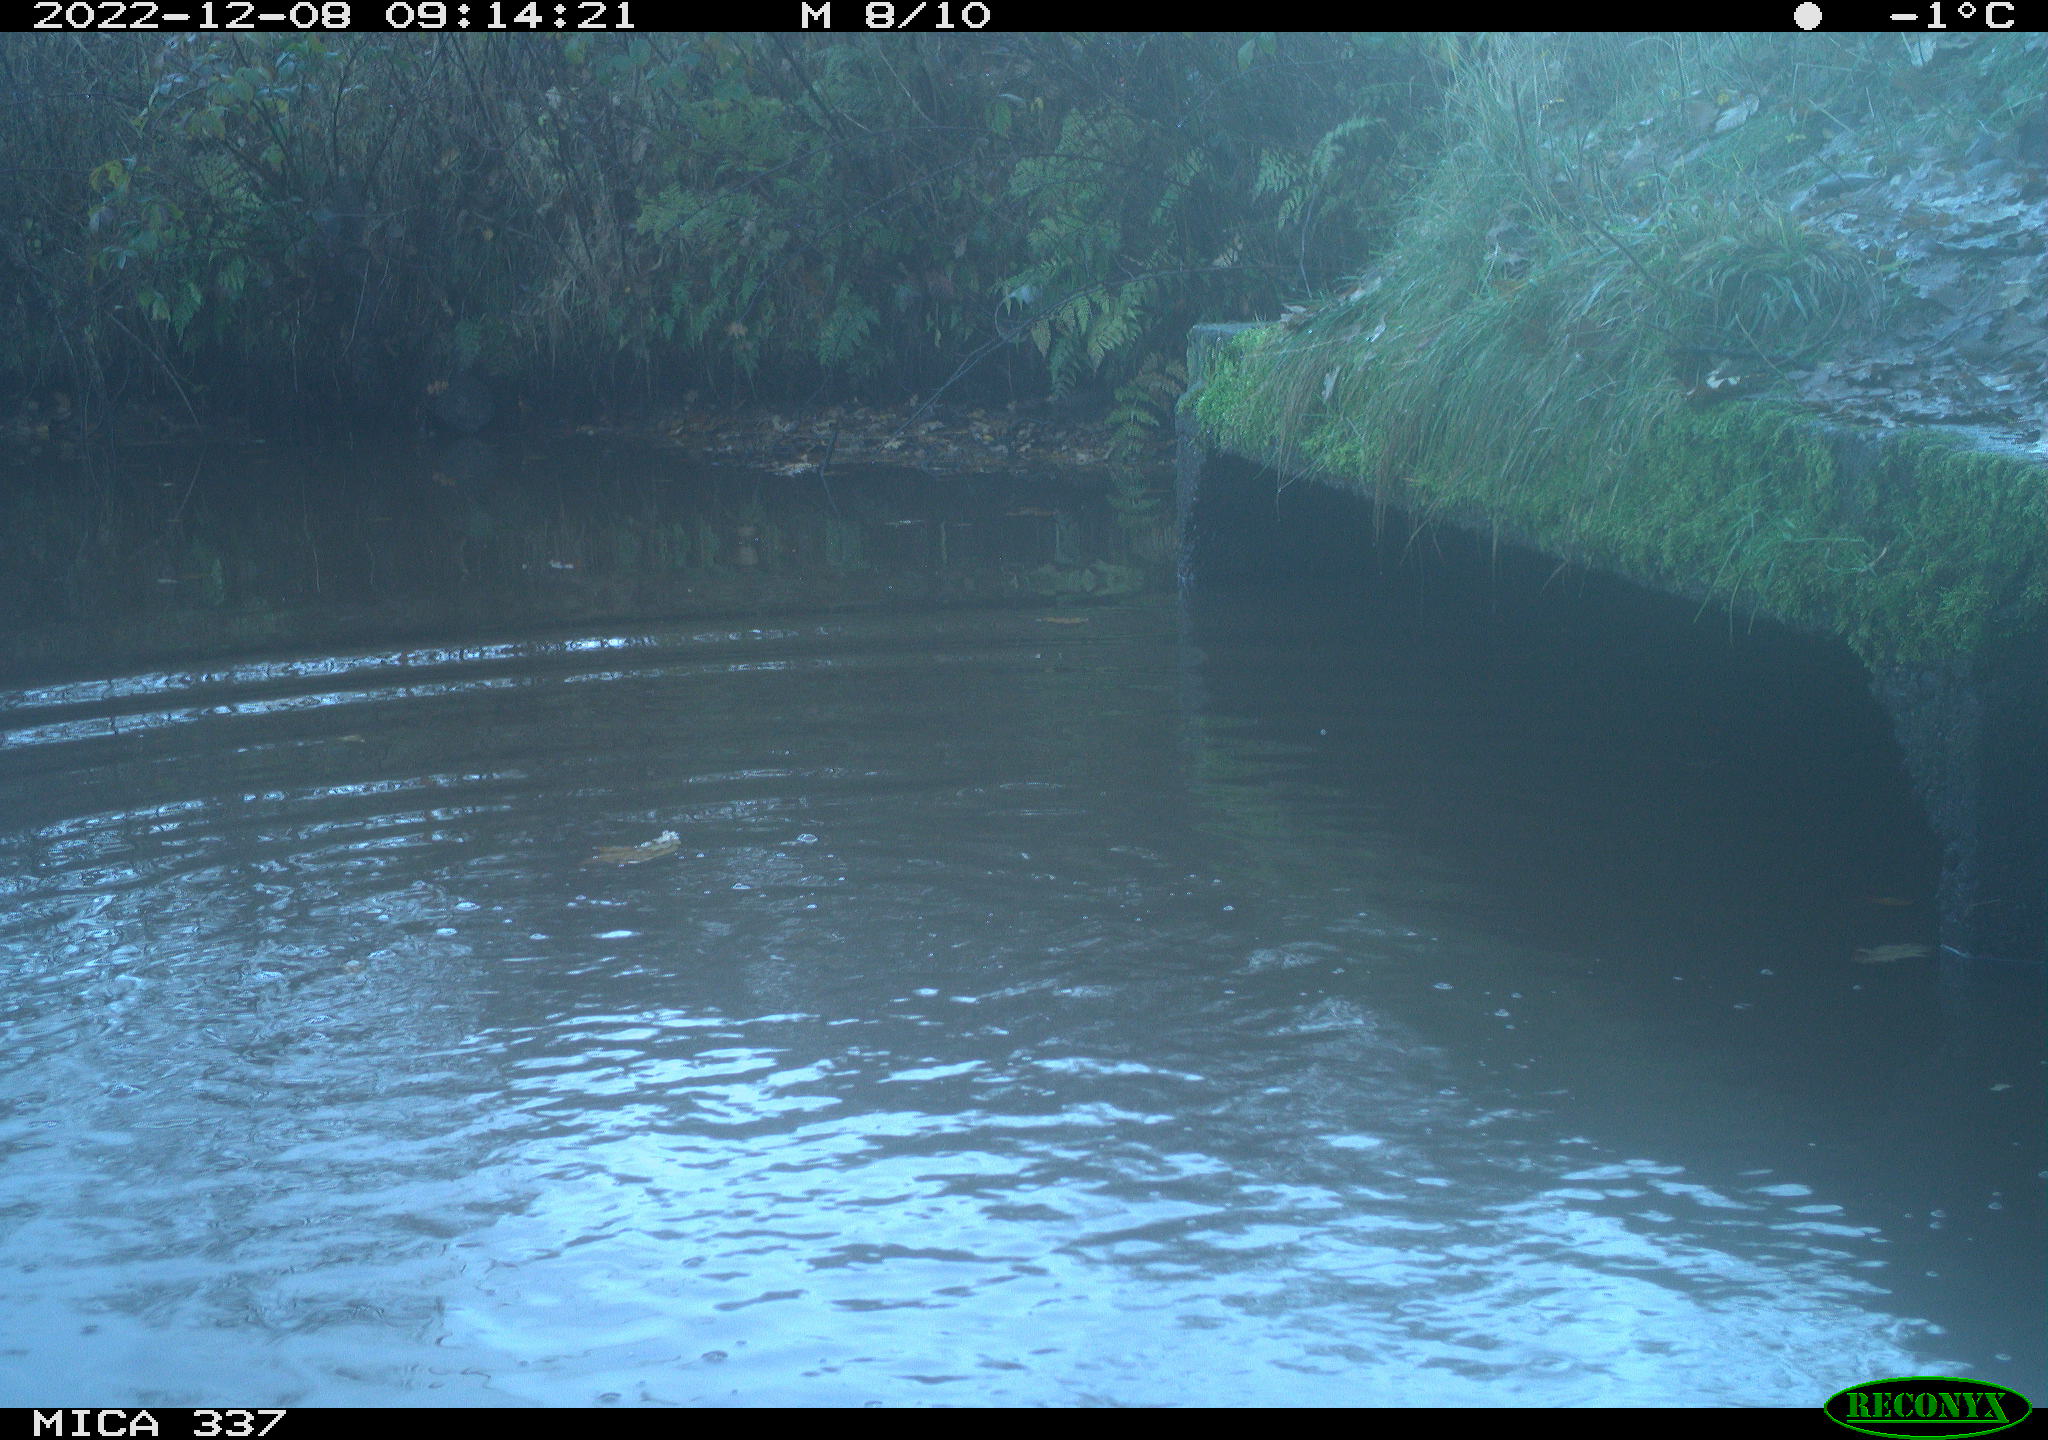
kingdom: Animalia
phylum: Chordata
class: Aves
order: Anseriformes
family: Anatidae
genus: Anas
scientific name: Anas
